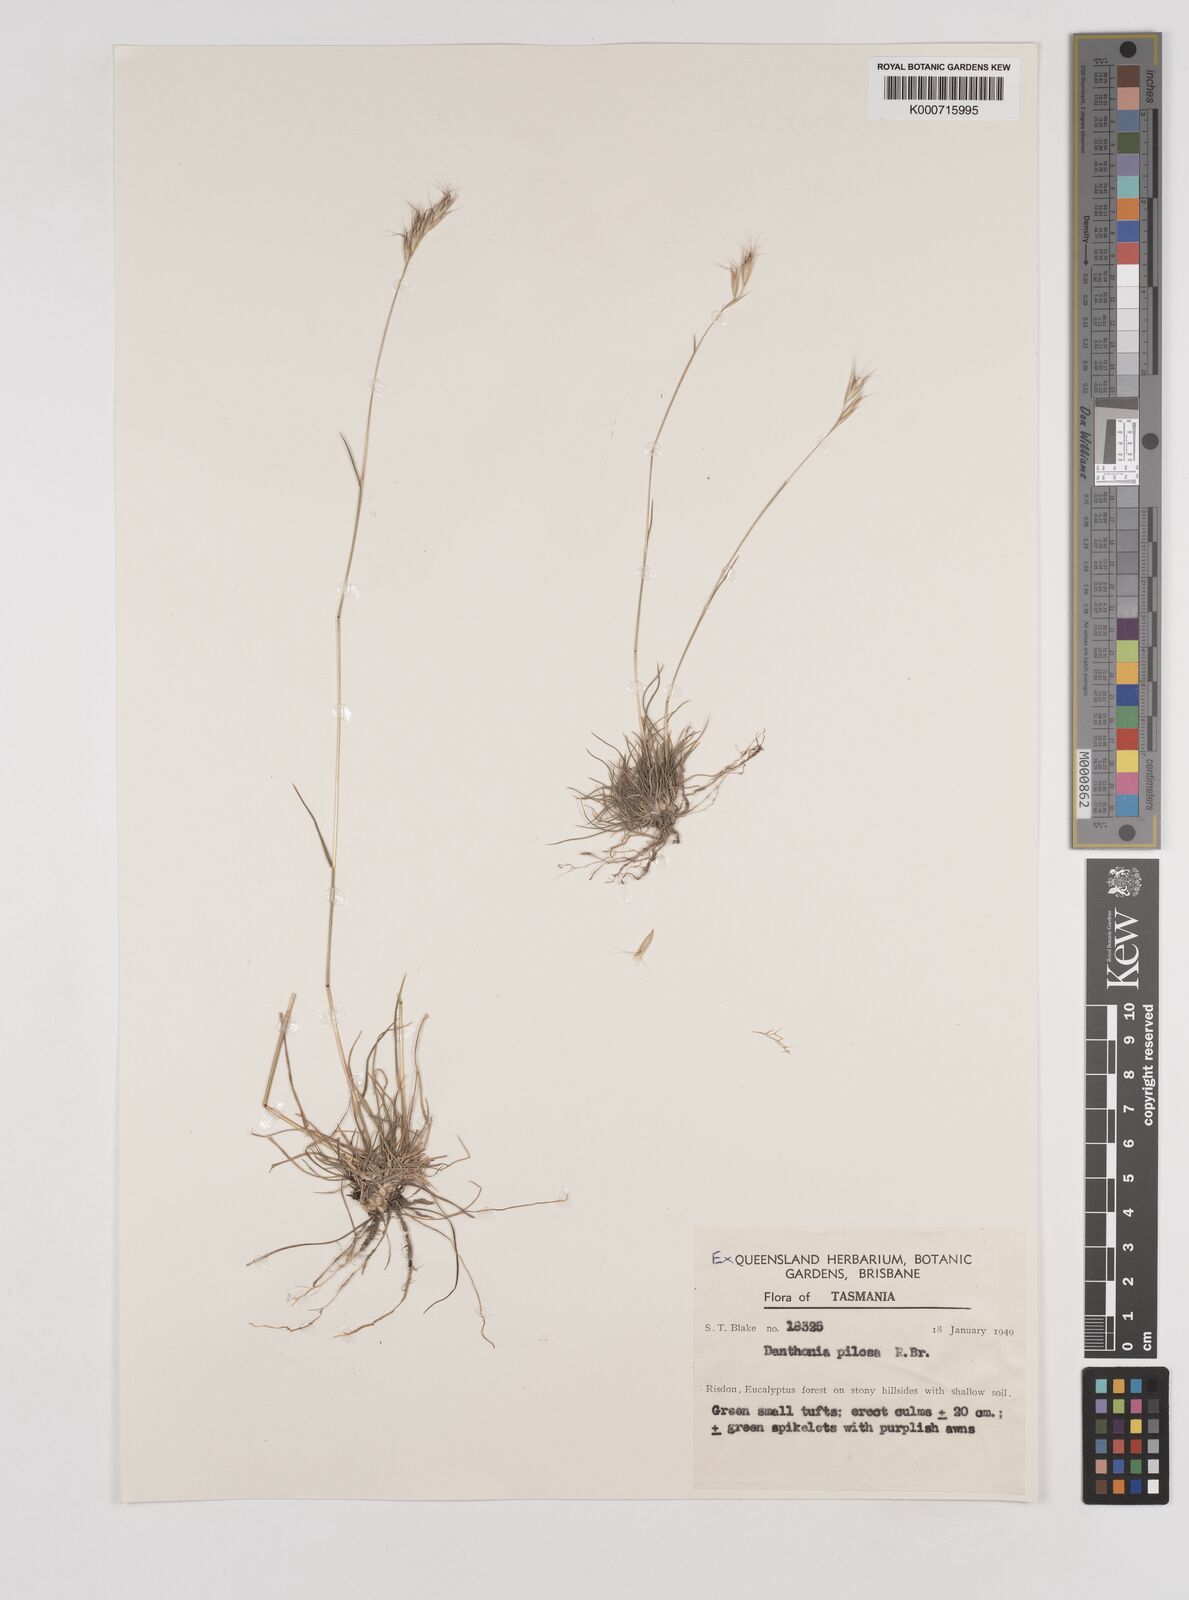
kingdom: Plantae
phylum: Tracheophyta
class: Liliopsida
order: Poales
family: Poaceae
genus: Rytidosperma
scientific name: Rytidosperma pilosum
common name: Hairy wallaby grass
